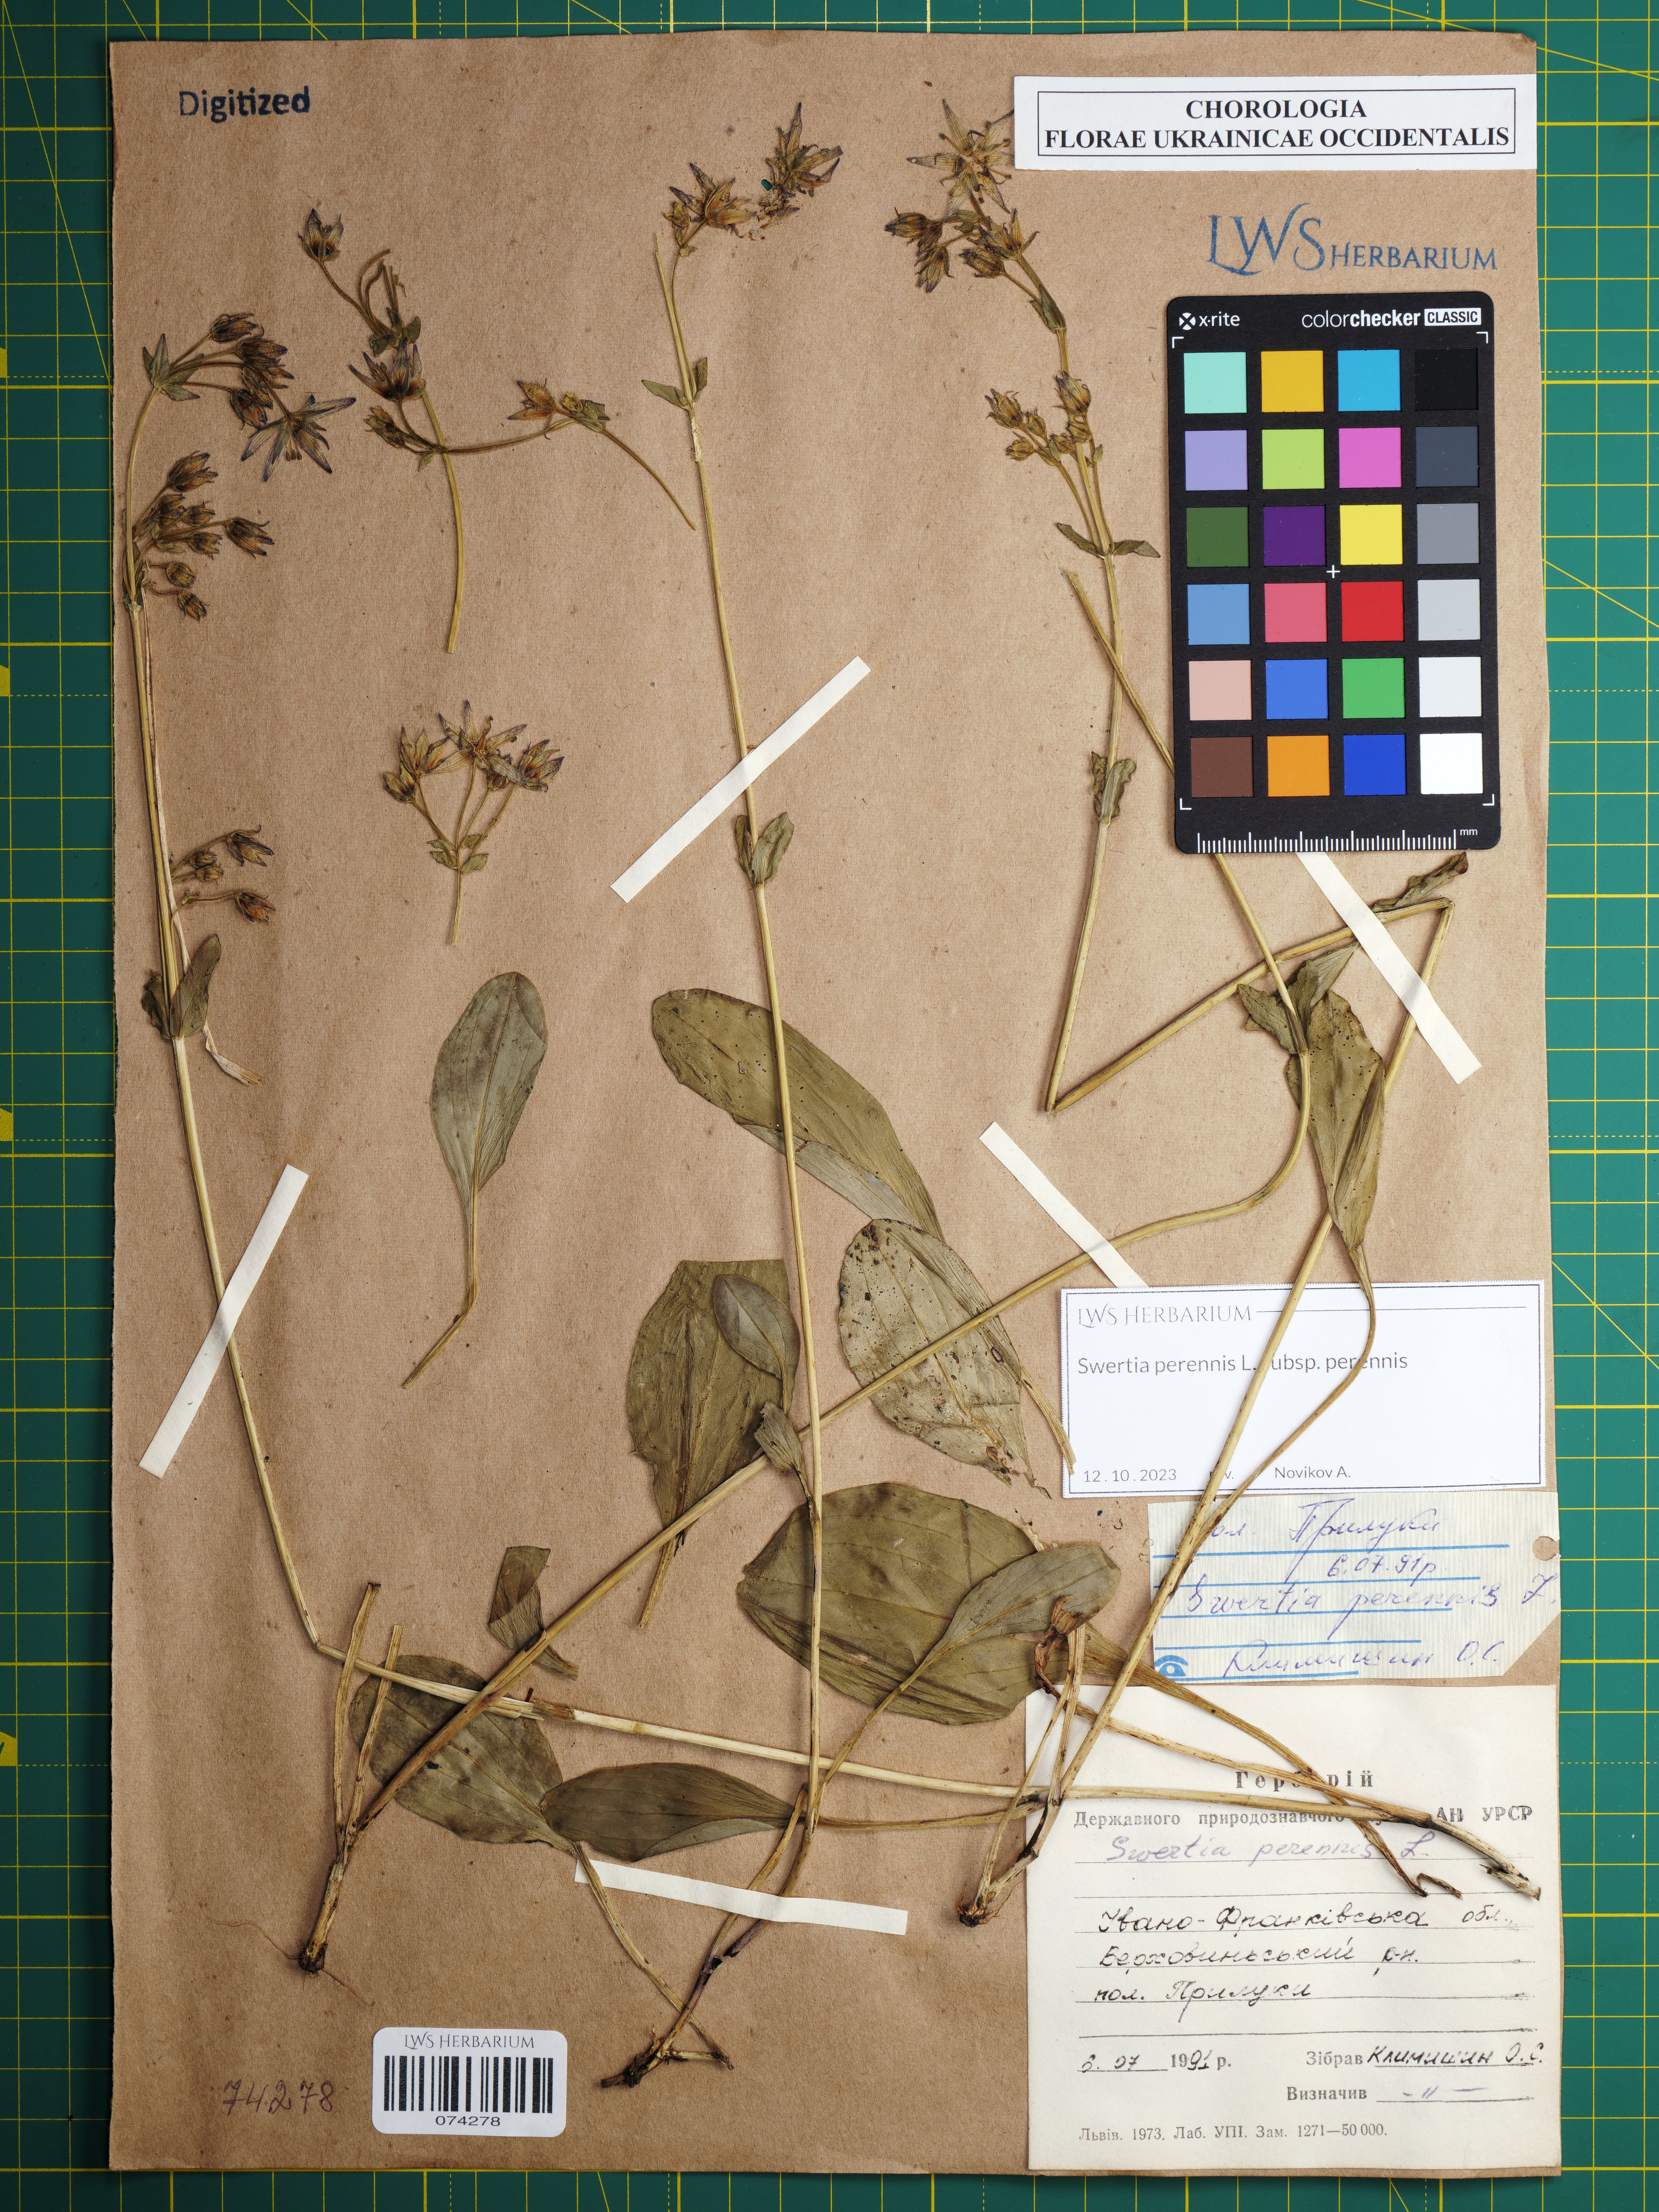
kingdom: Plantae
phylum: Tracheophyta
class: Magnoliopsida
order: Gentianales
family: Gentianaceae
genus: Swertia
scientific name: Swertia perennis
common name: Alpine bog swertia
